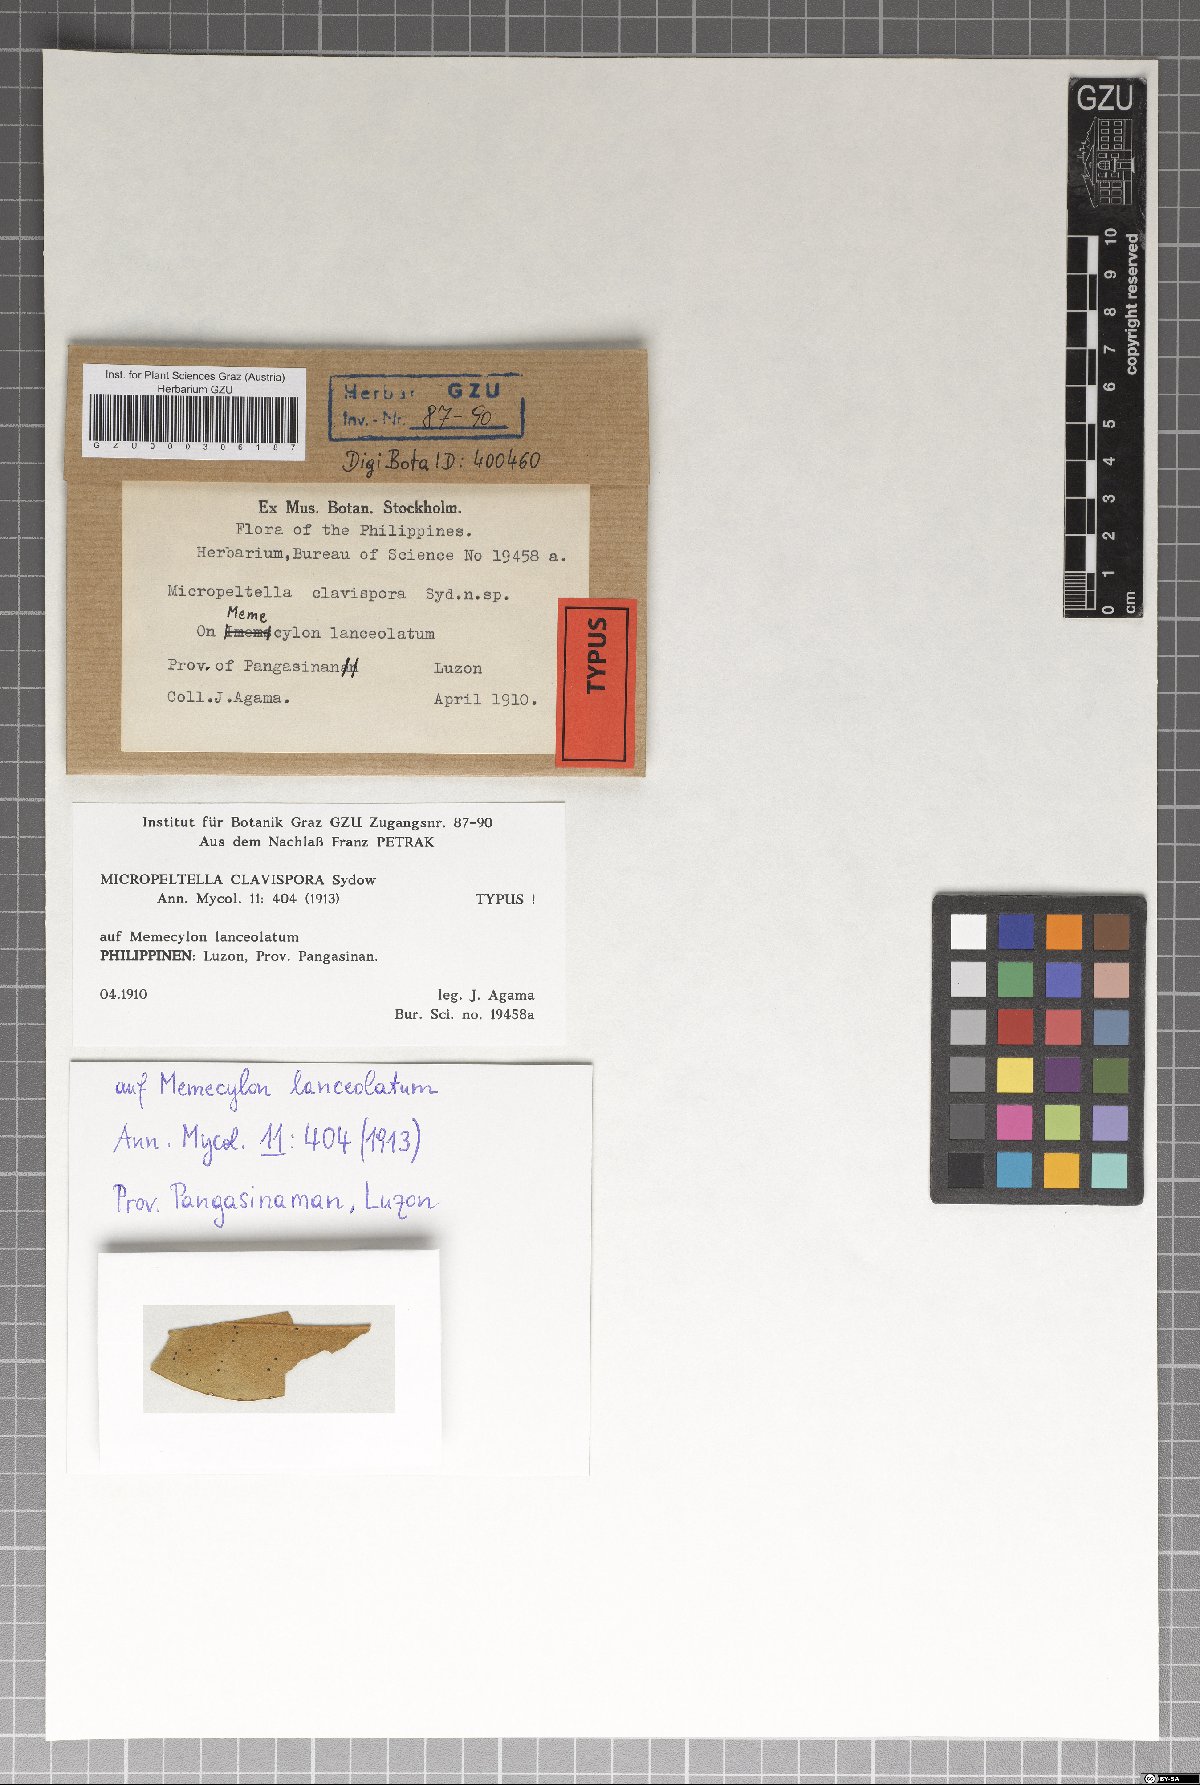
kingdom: Fungi
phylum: Ascomycota
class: Dothideomycetes
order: Microthyriales
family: Micropeltidaceae
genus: Micropeltis
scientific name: Micropeltis clavispora
